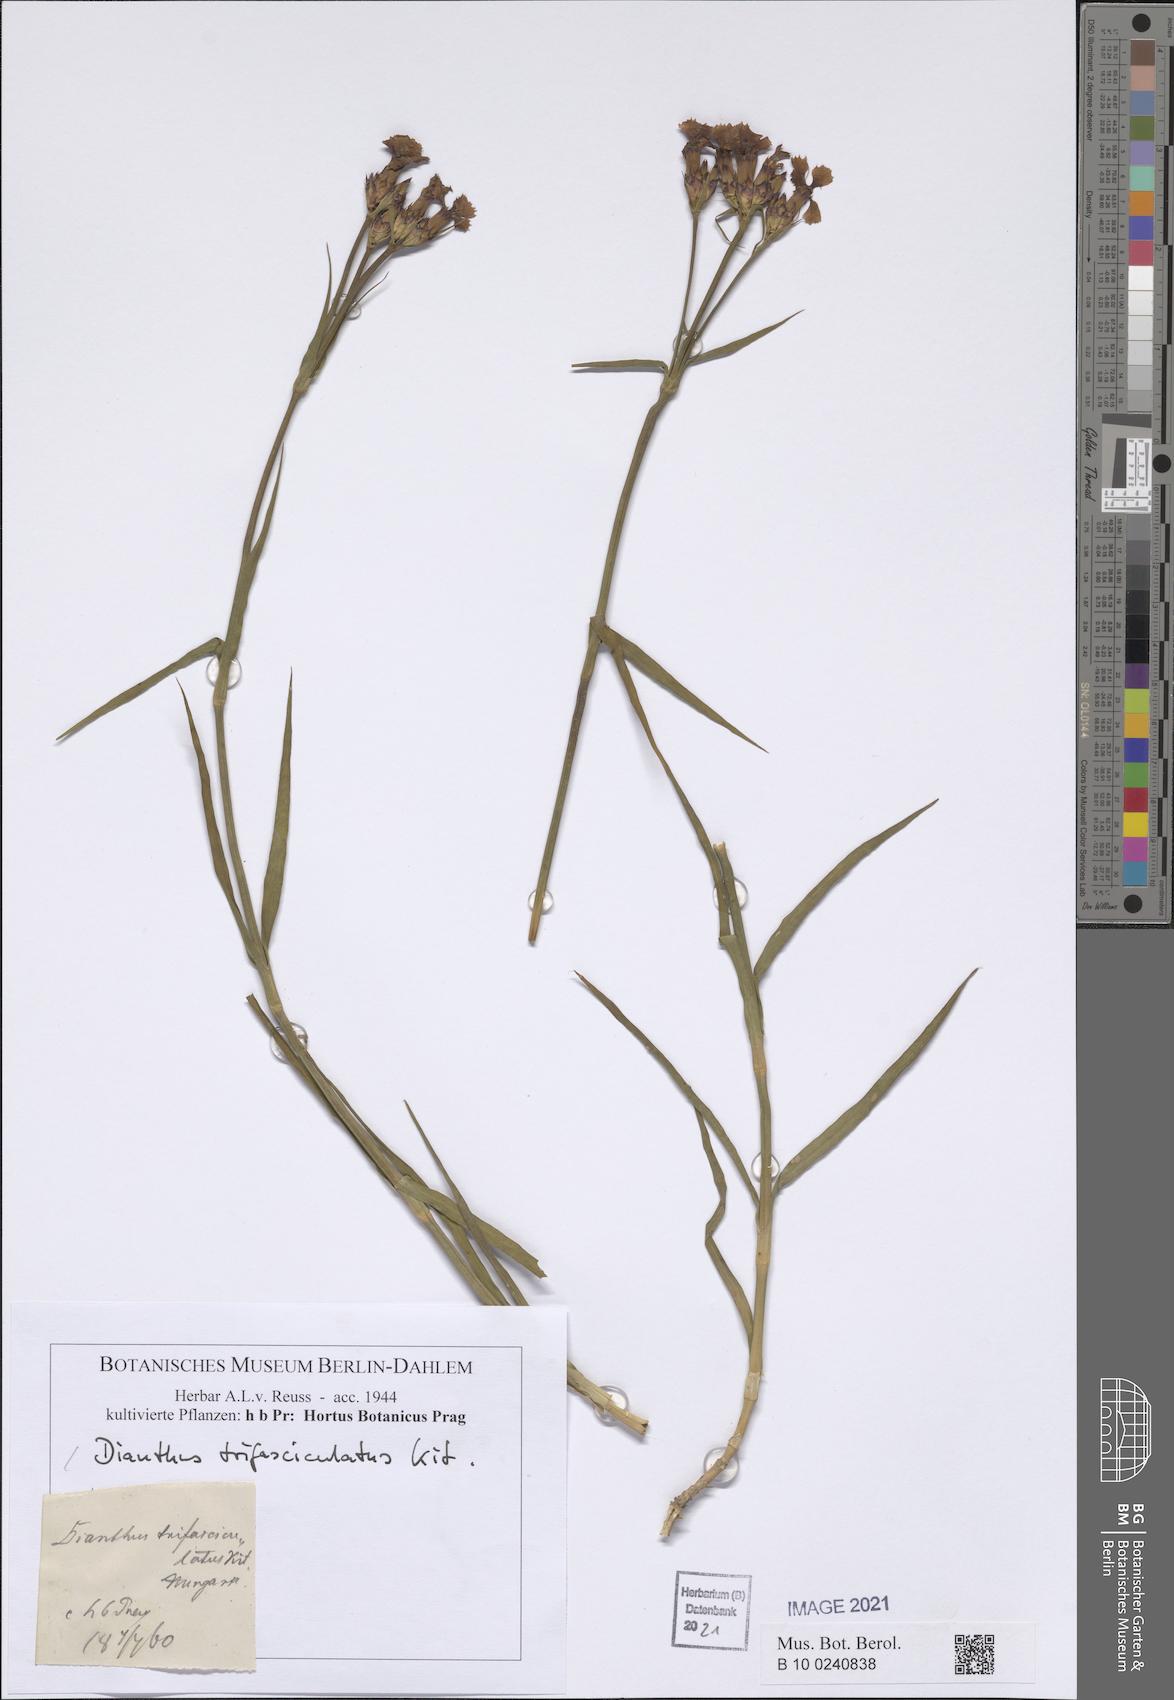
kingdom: Plantae
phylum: Tracheophyta
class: Magnoliopsida
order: Caryophyllales
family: Caryophyllaceae
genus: Dianthus
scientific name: Dianthus trifasciculatus
